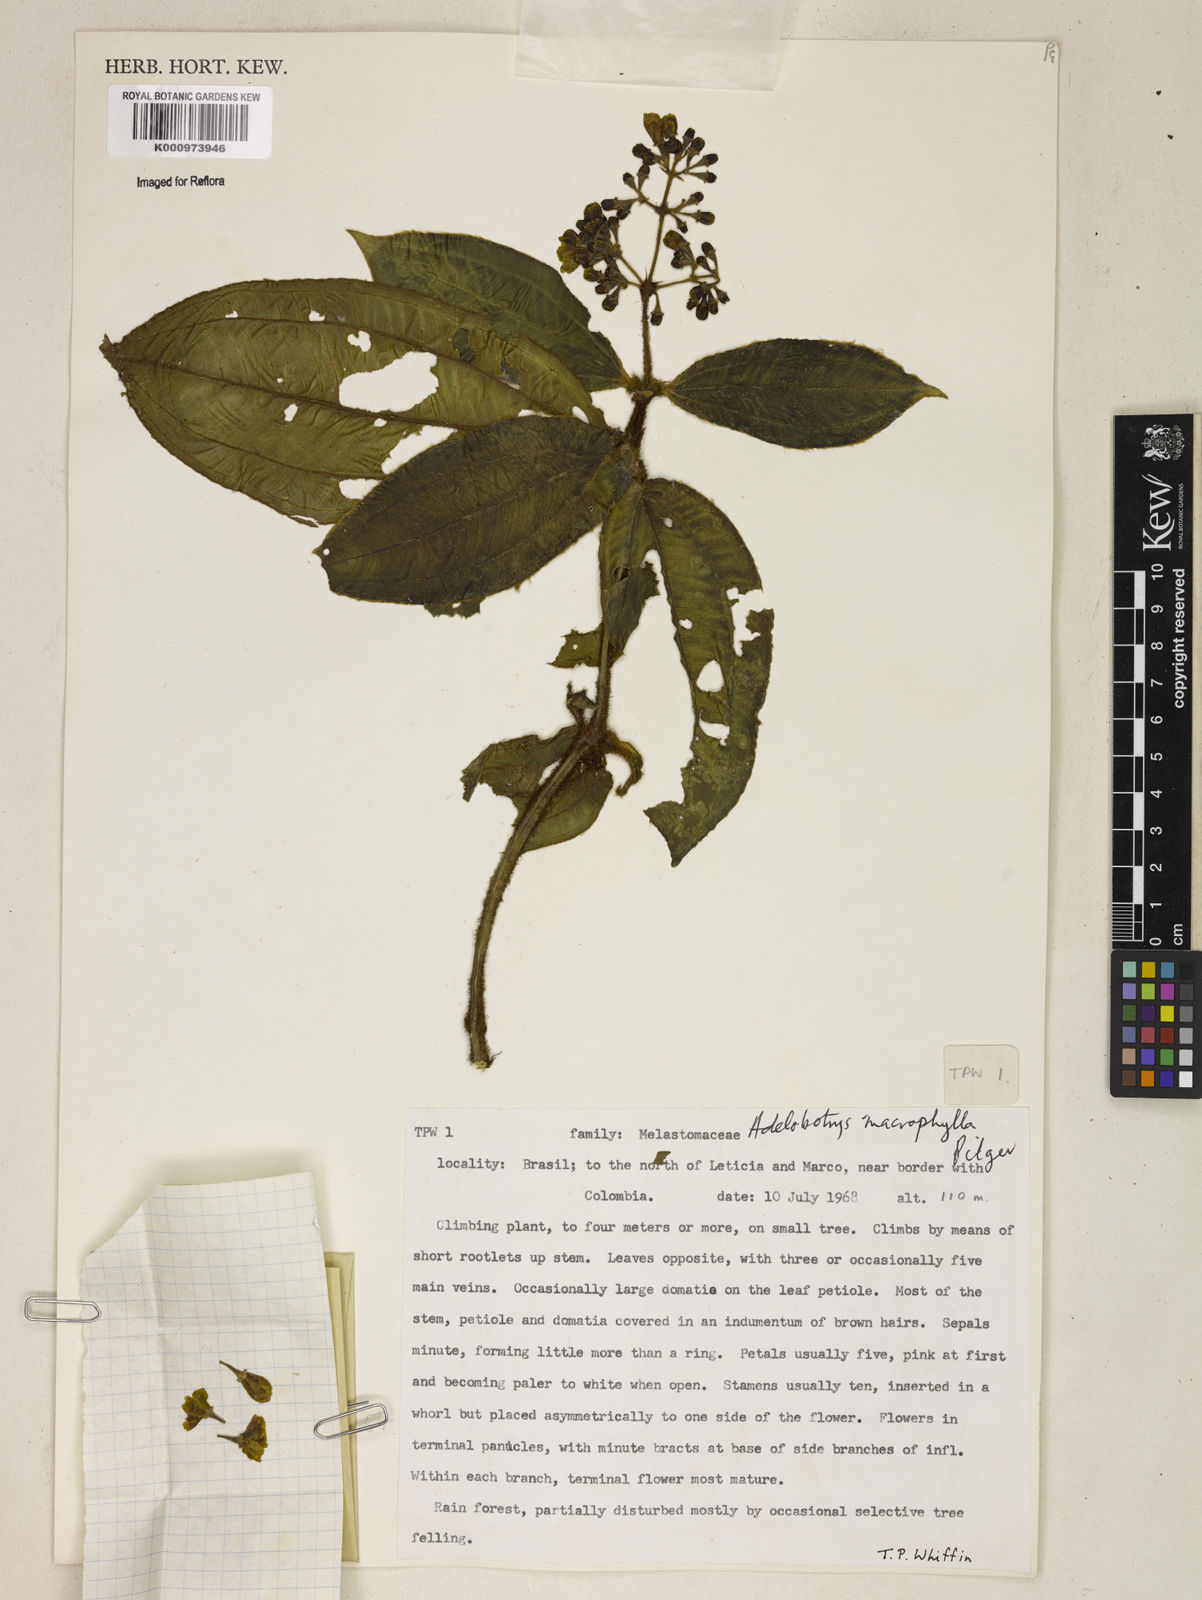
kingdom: Plantae
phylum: Tracheophyta
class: Magnoliopsida
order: Myrtales
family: Melastomataceae
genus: Adelobotrys
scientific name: Adelobotrys macrophyllus
